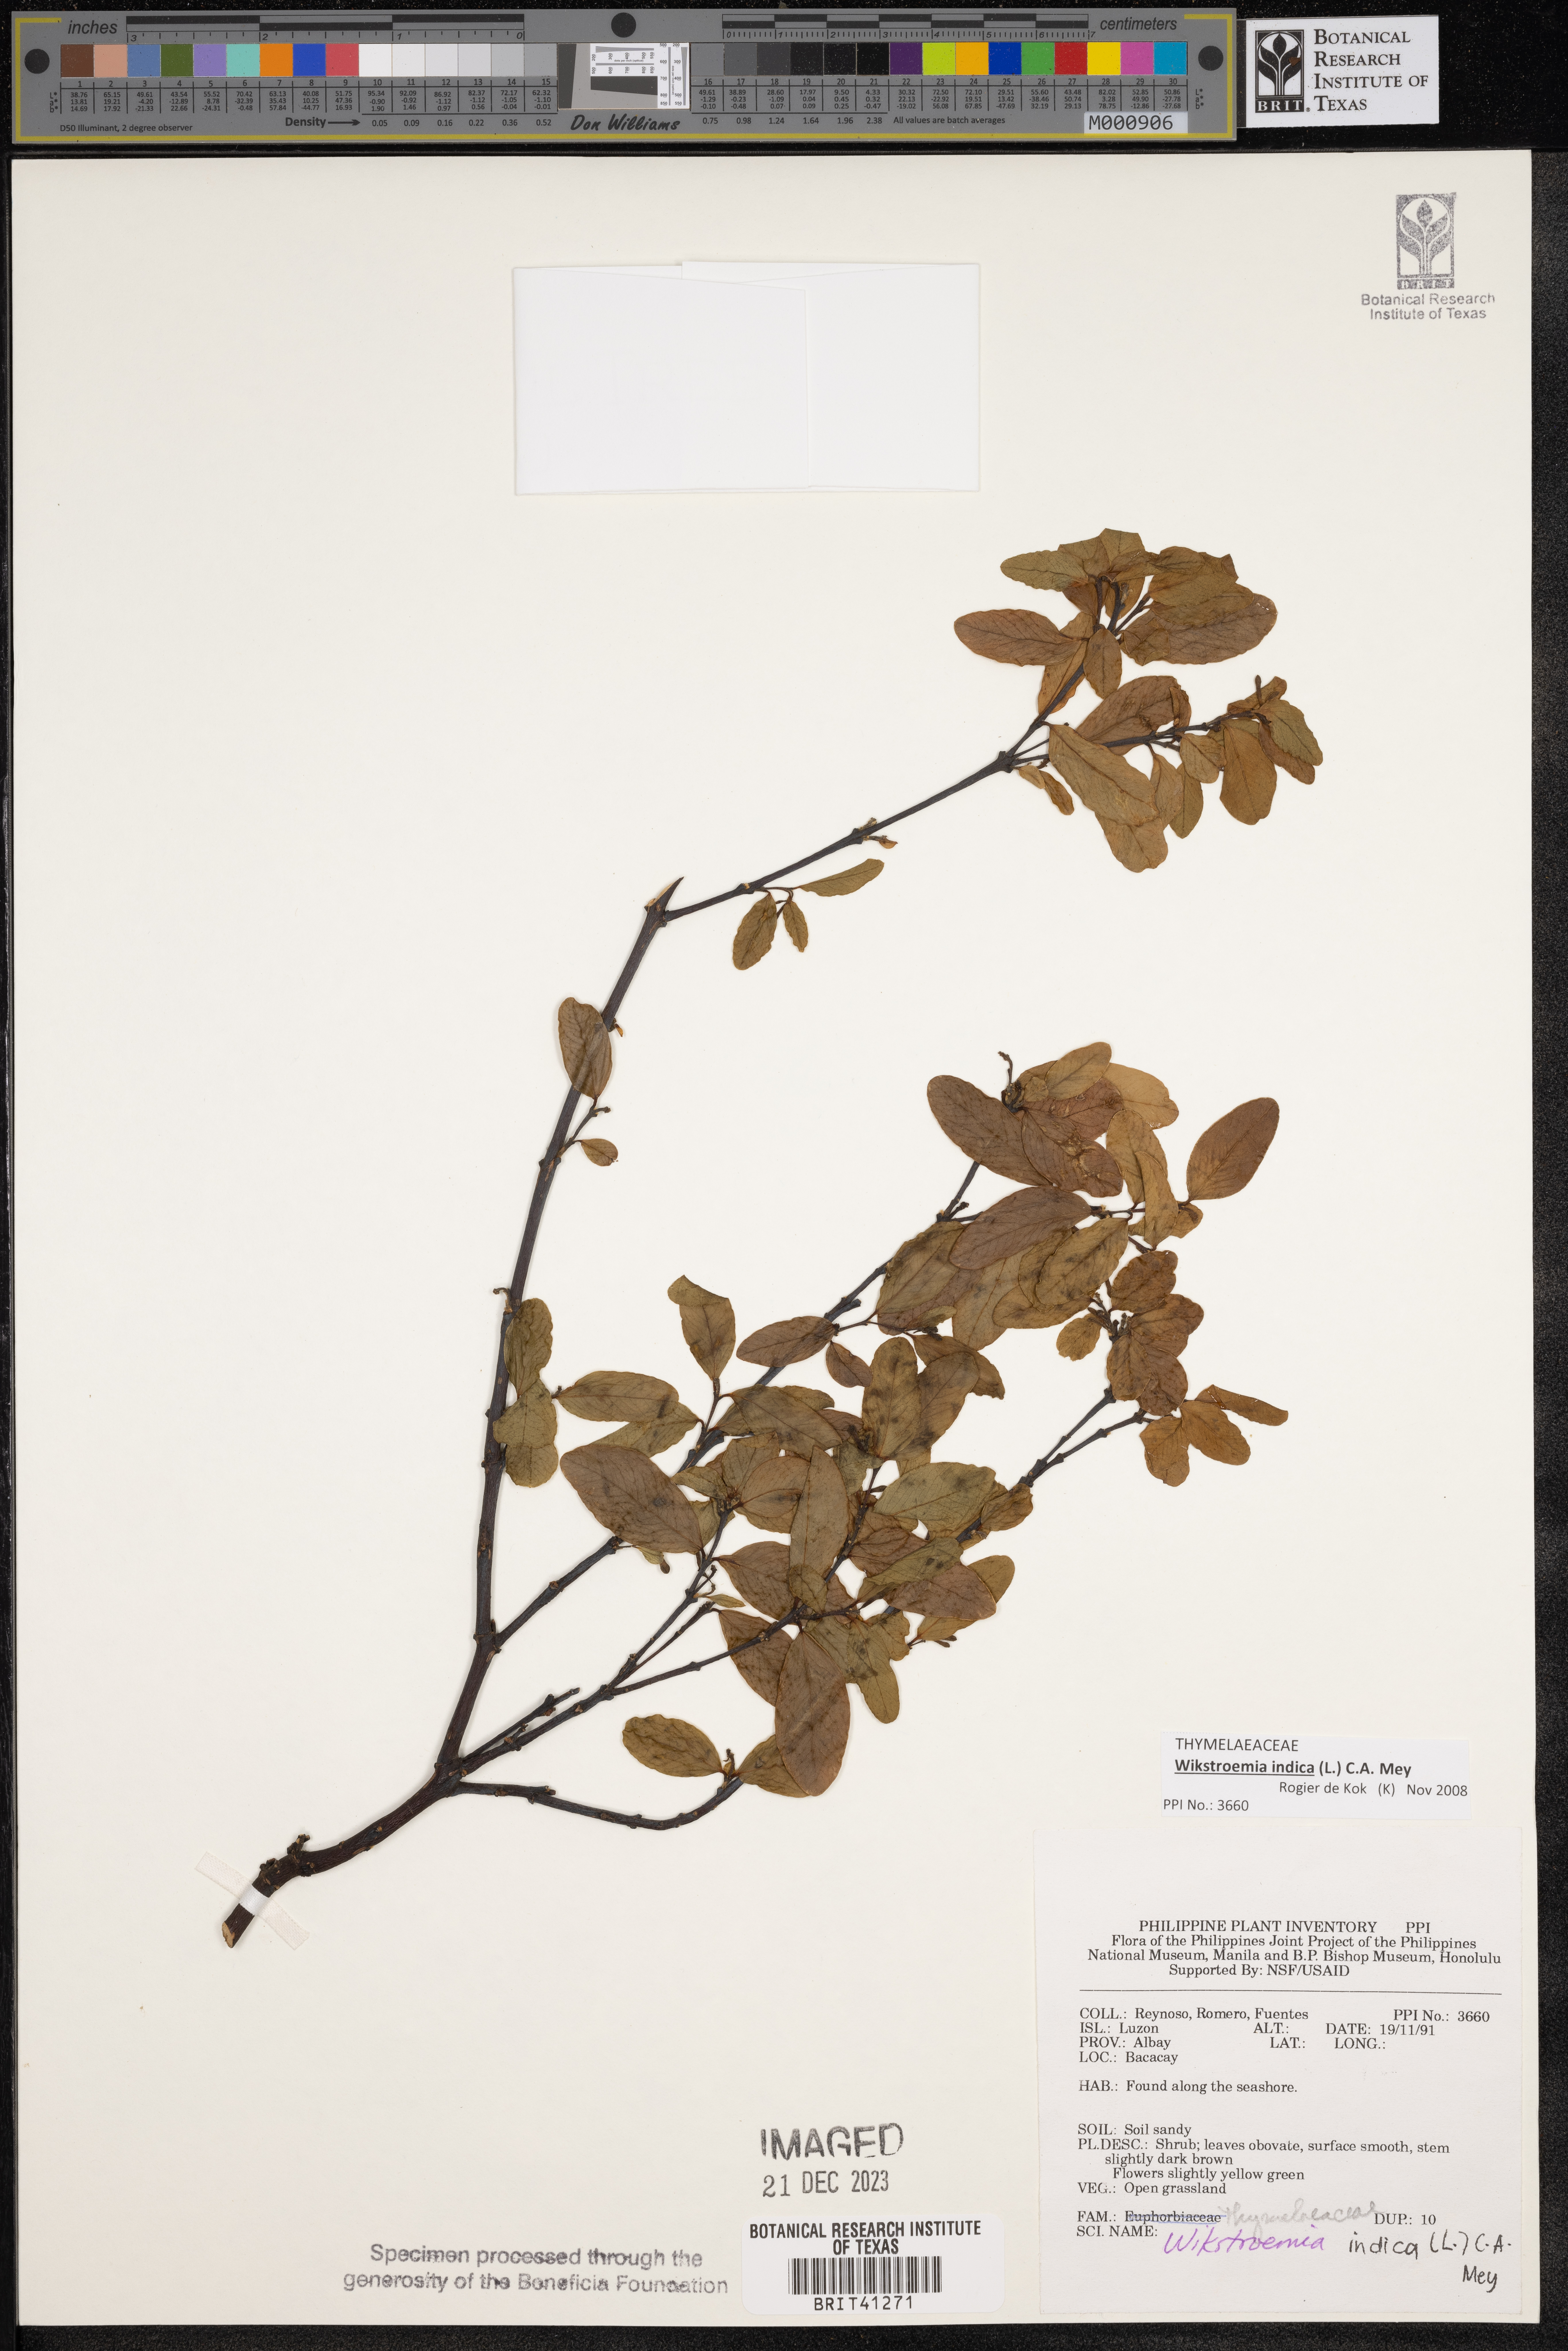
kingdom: Plantae
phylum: Tracheophyta
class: Magnoliopsida
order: Malvales
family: Thymelaeaceae
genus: Wikstroemia
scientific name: Wikstroemia indica
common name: Tiebush
